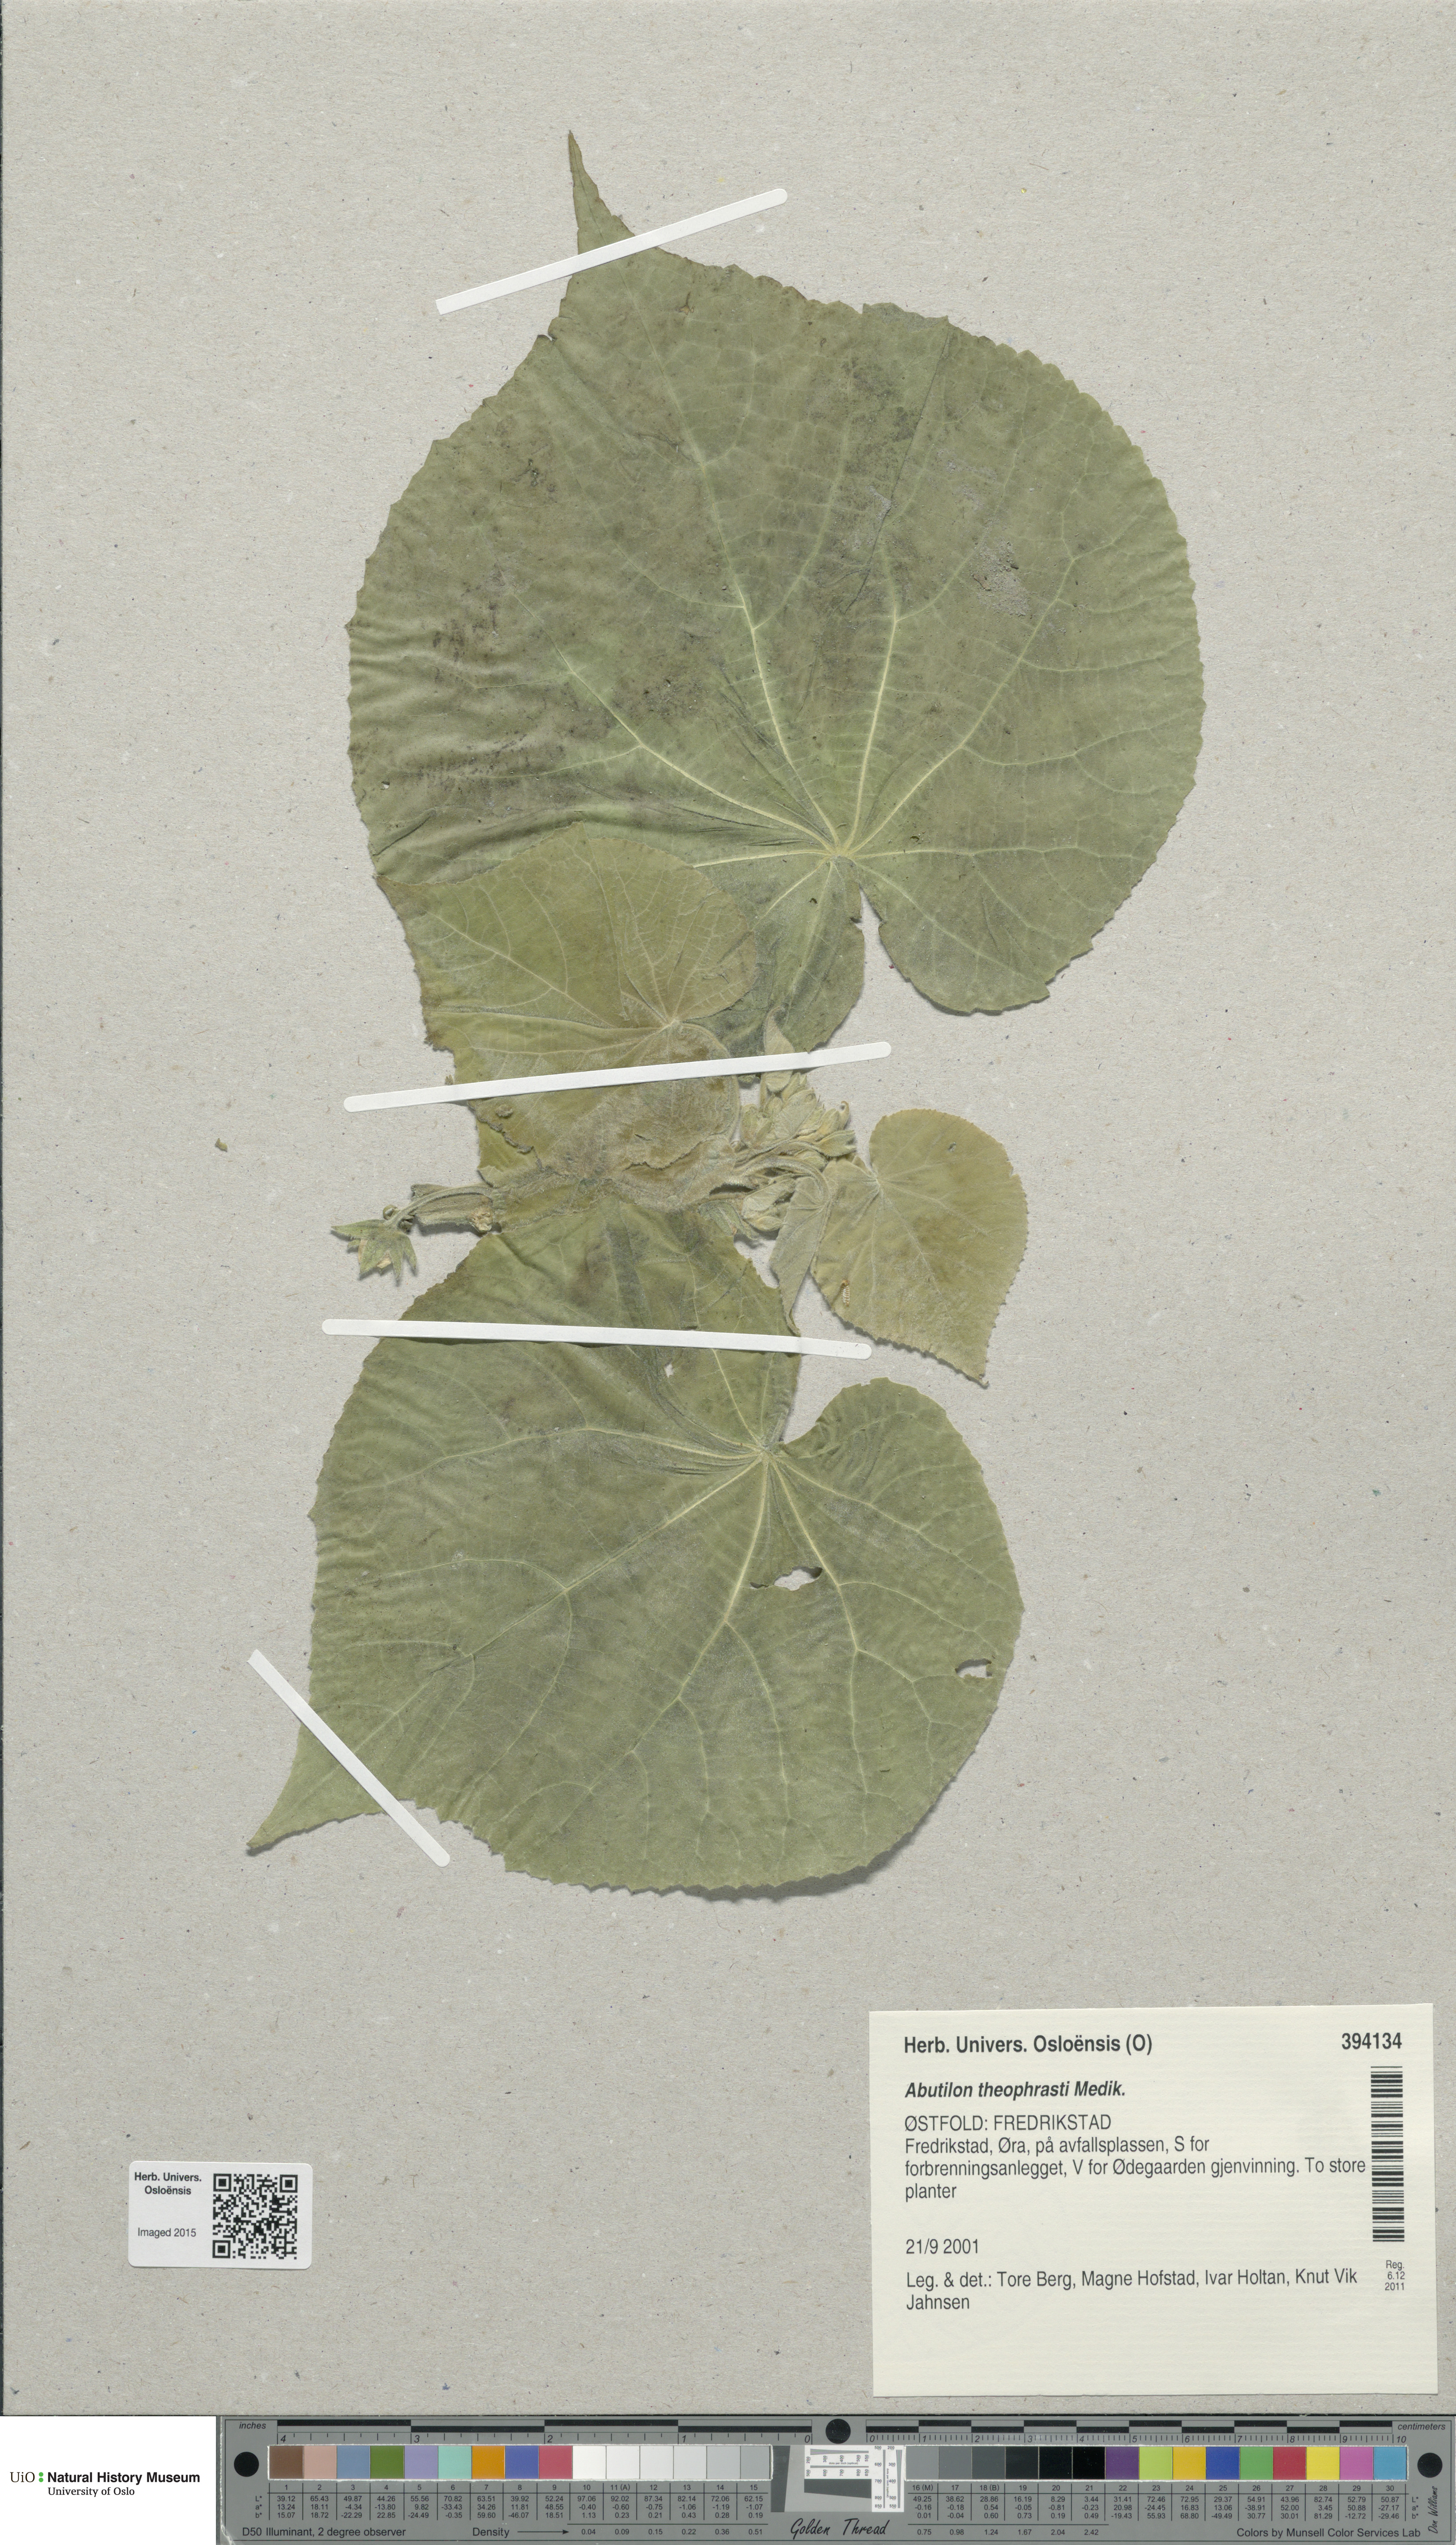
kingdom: Plantae
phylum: Tracheophyta
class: Magnoliopsida
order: Malvales
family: Malvaceae
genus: Abutilon
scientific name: Abutilon theophrasti
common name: Velvetleaf
